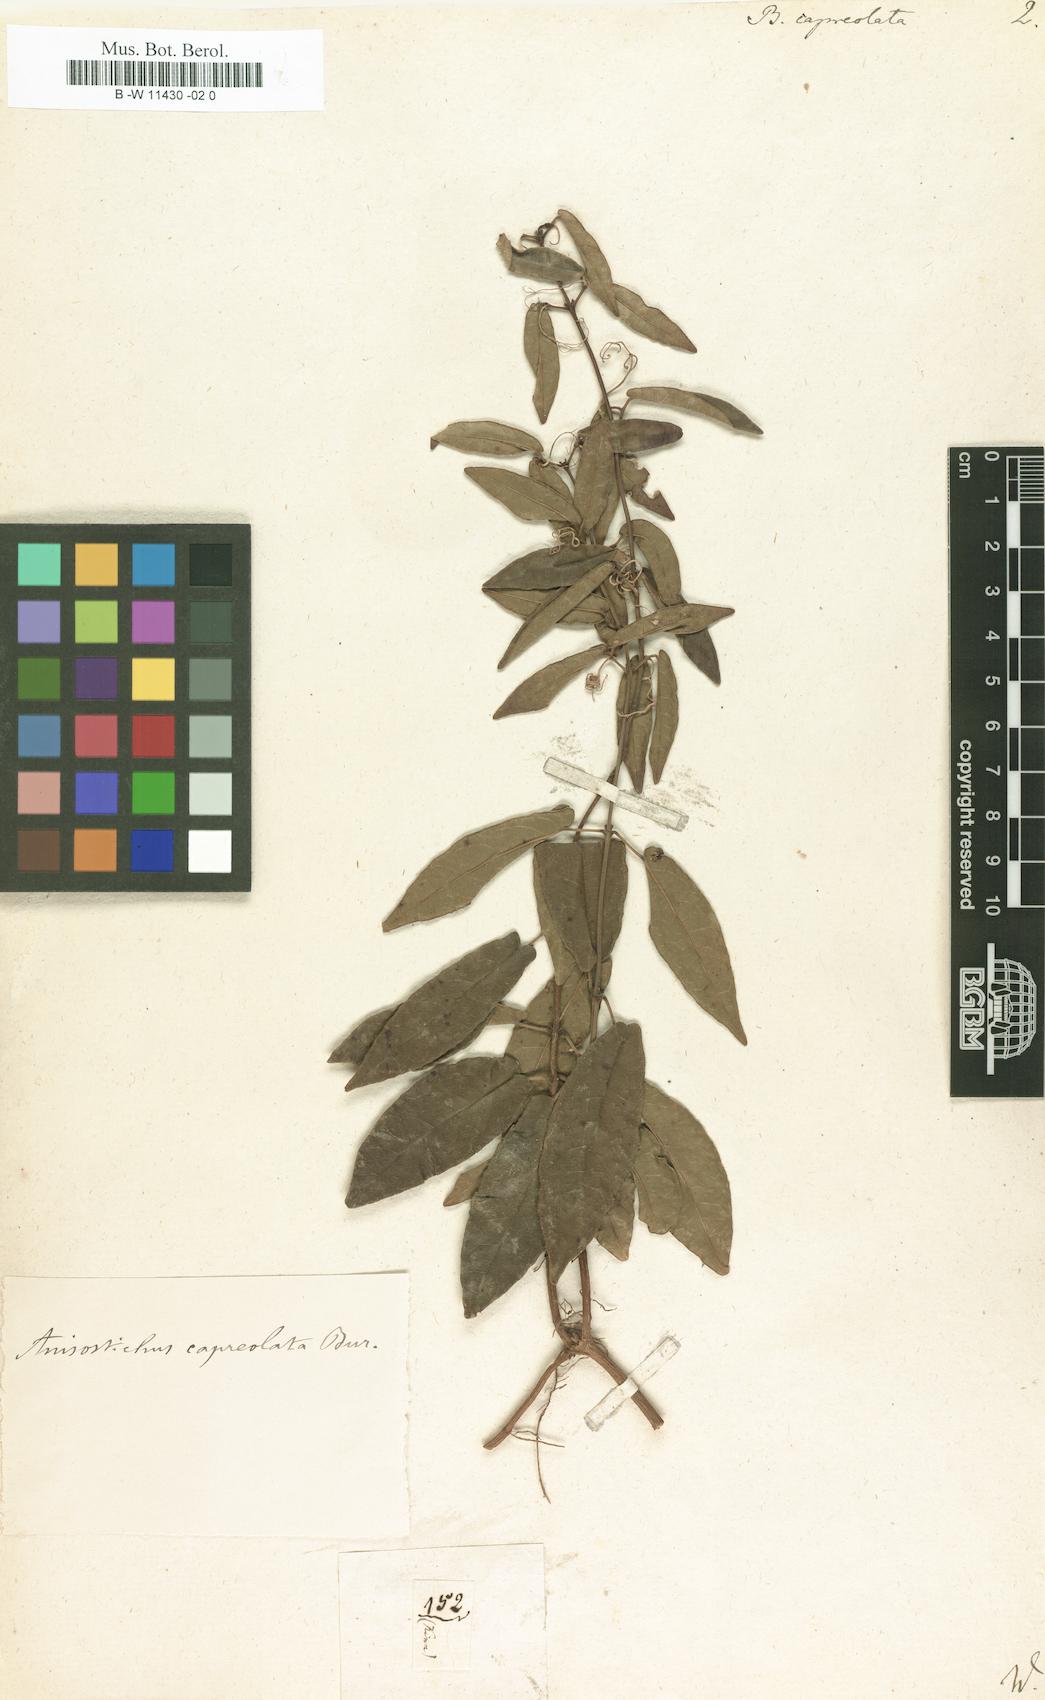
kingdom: Plantae
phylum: Tracheophyta
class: Magnoliopsida
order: Lamiales
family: Bignoniaceae
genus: Bignonia
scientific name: Bignonia capreolata
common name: Crossvine
